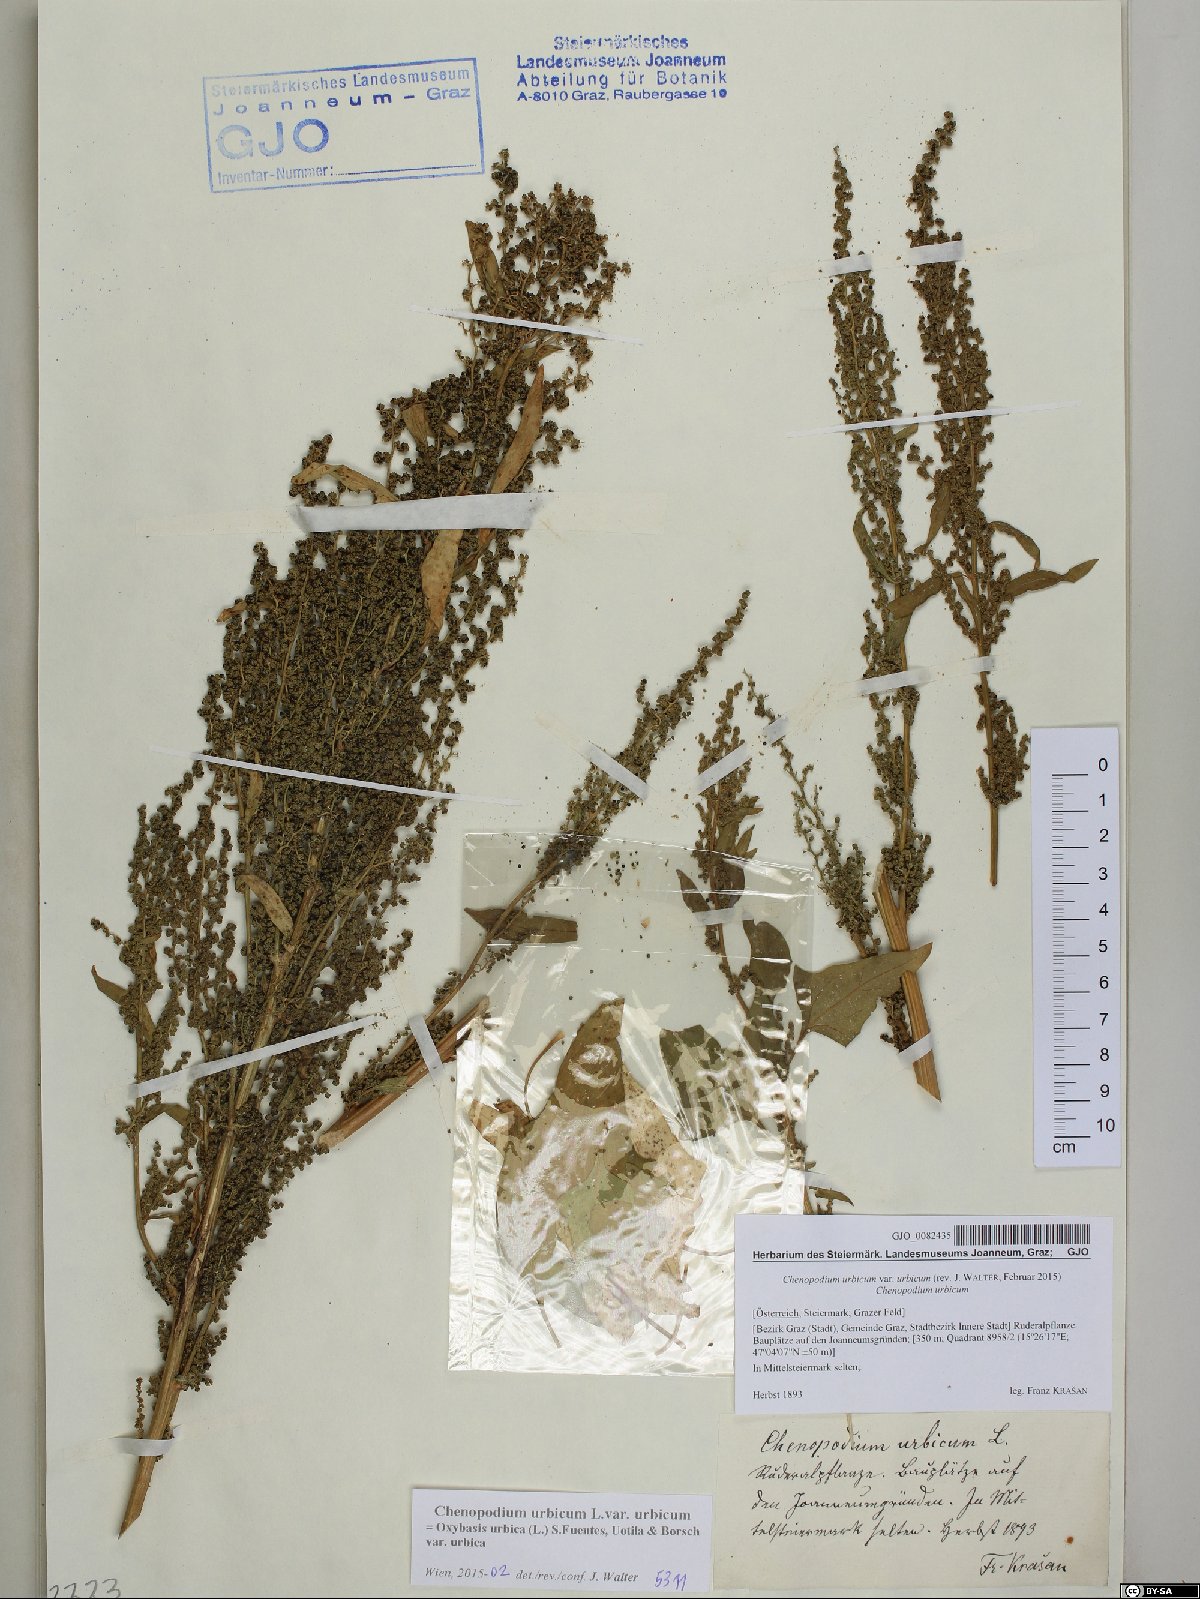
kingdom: Plantae
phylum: Tracheophyta
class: Magnoliopsida
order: Caryophyllales
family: Amaranthaceae
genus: Oxybasis
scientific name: Oxybasis urbica
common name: City goosefoot
